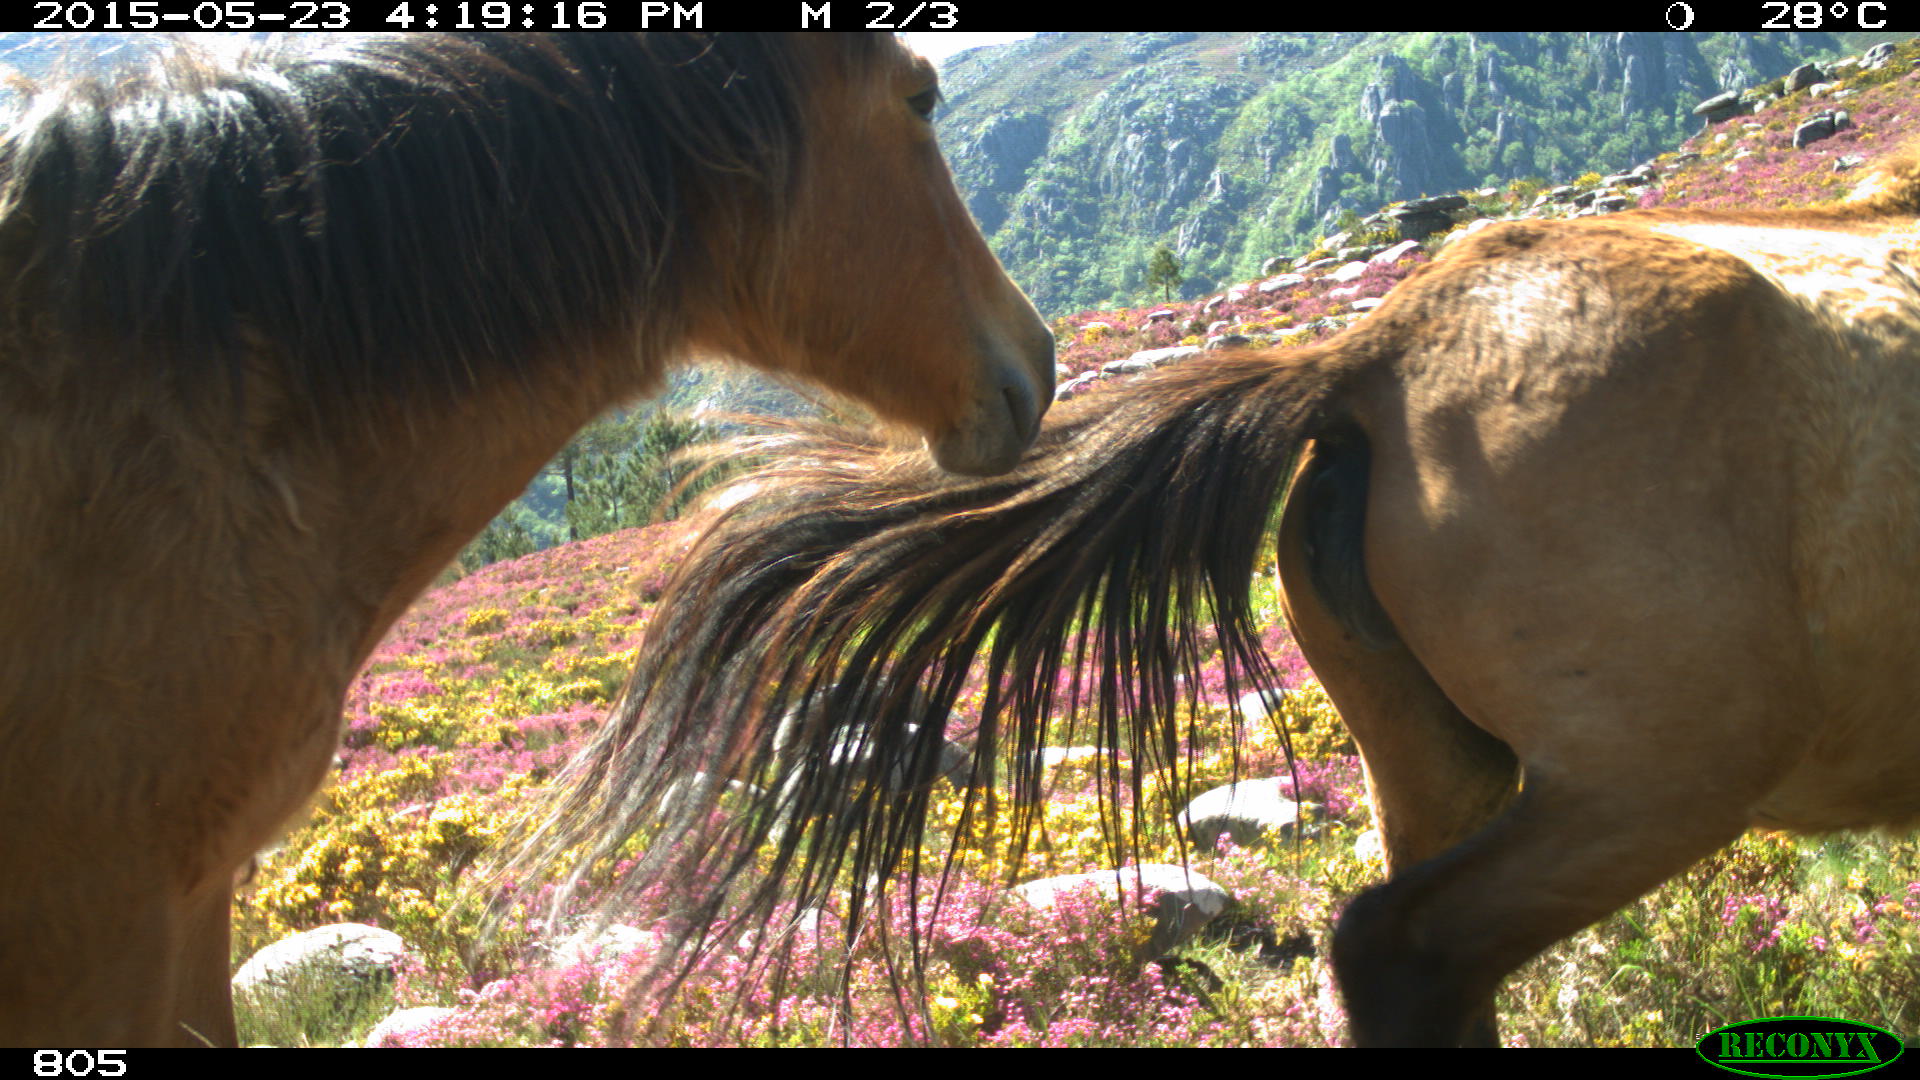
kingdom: Animalia
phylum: Chordata
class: Mammalia
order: Perissodactyla
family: Equidae
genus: Equus
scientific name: Equus caballus
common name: Horse
